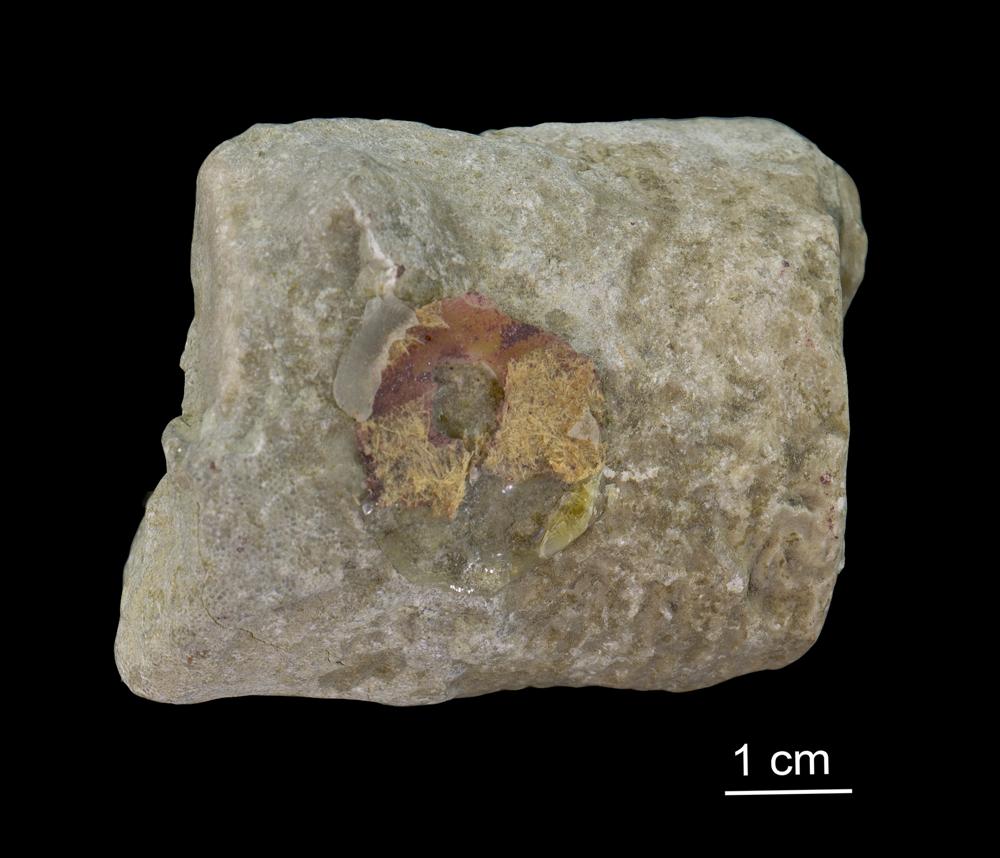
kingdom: Animalia
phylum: Echinodermata
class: Crinoidea
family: Crotalocrinitidae
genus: Crotalocrinus
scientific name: Crotalocrinus
